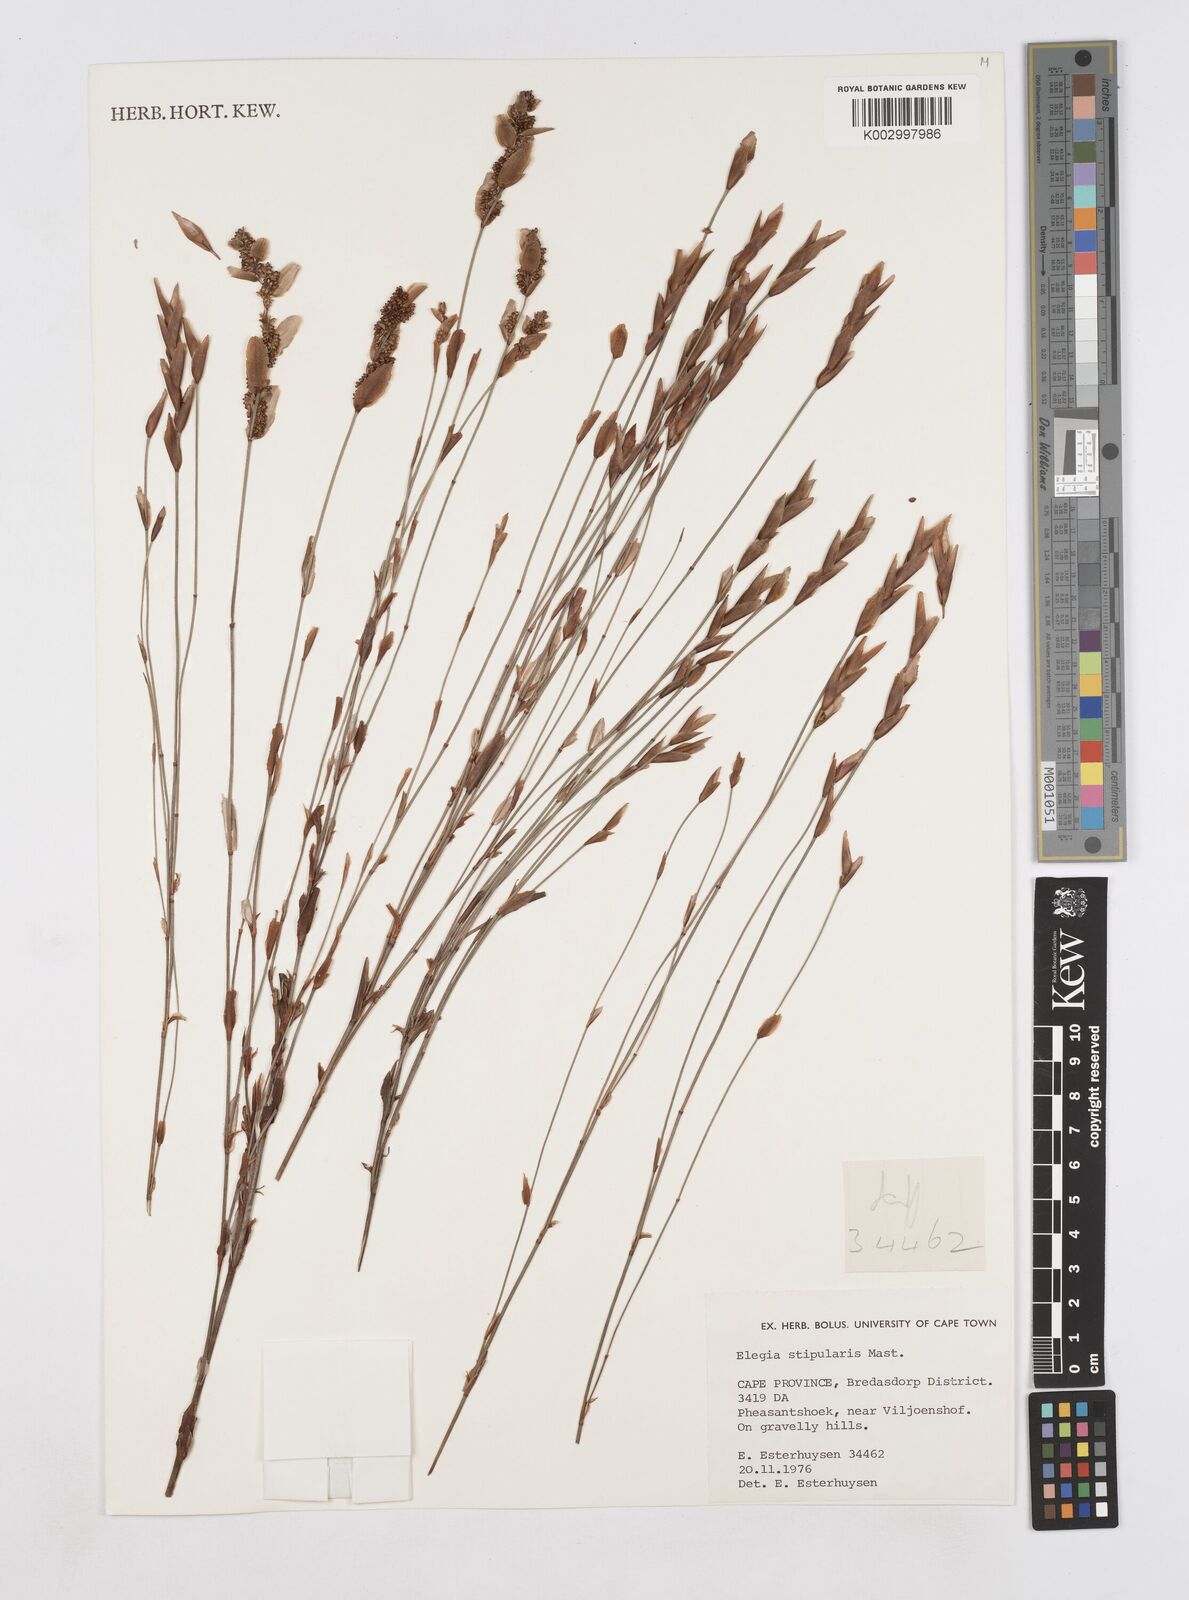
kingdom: Plantae
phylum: Tracheophyta
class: Liliopsida
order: Poales
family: Restionaceae
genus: Elegia
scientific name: Elegia stipularis
